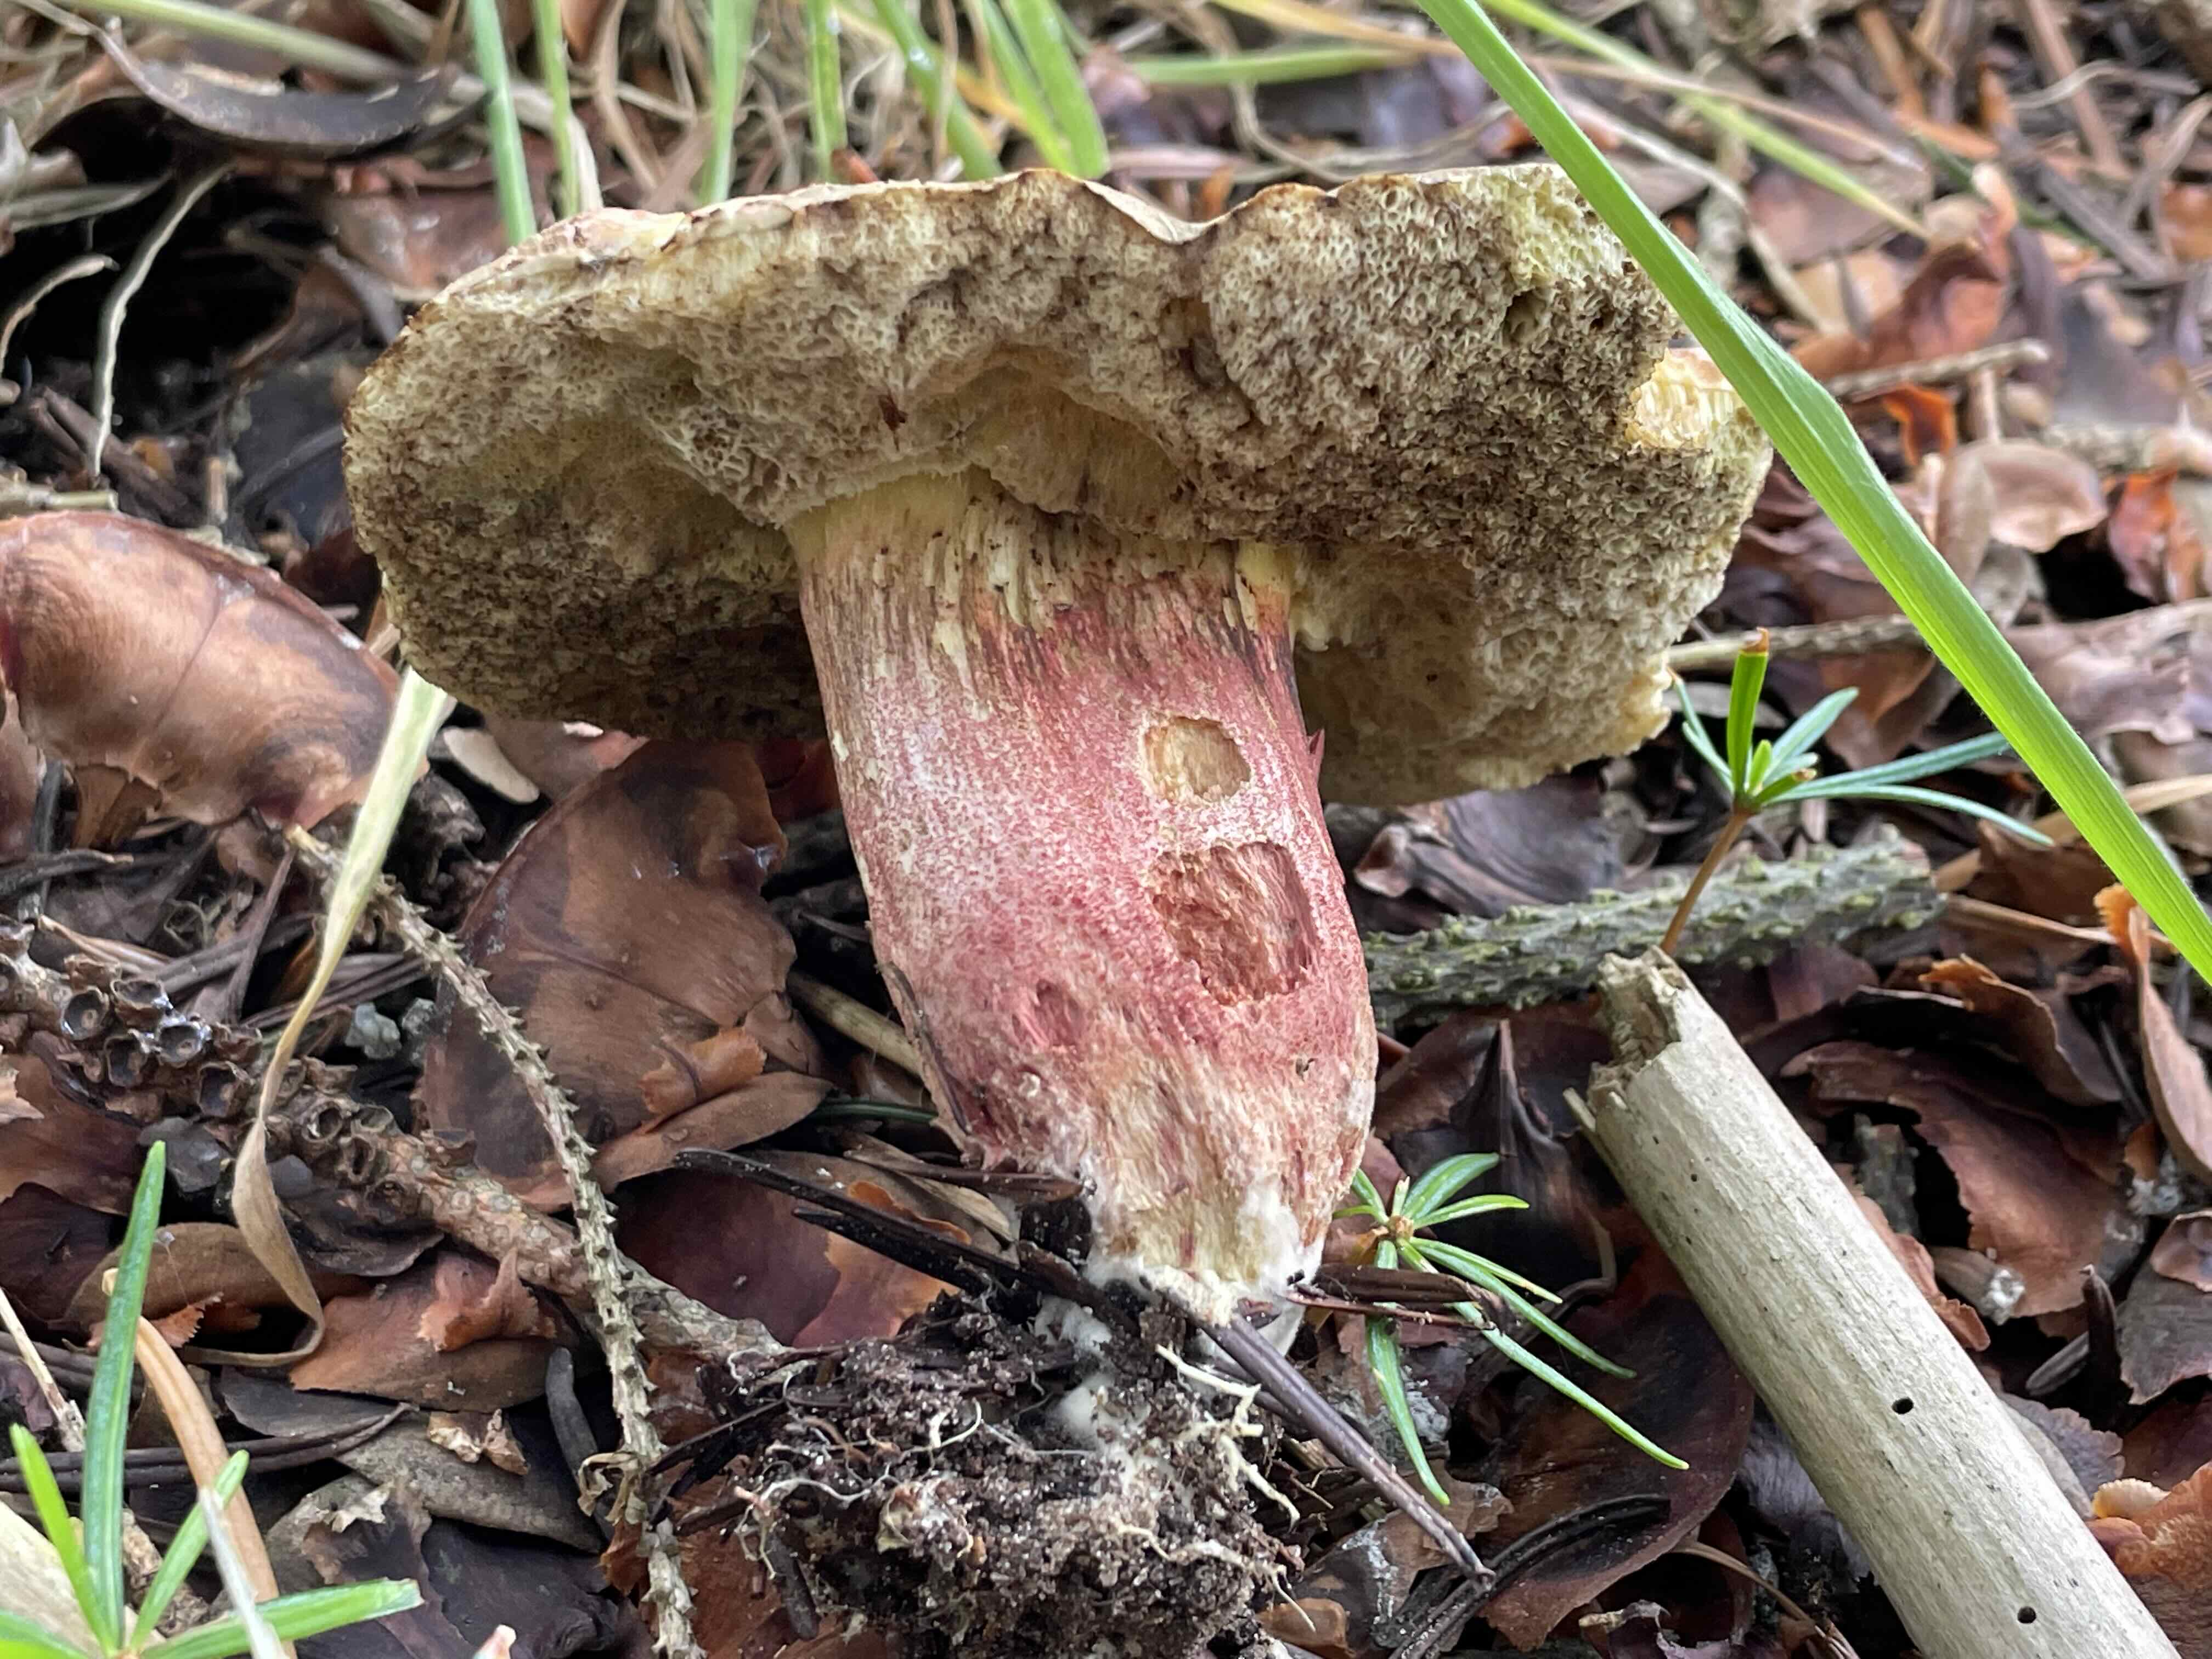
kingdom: Fungi
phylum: Basidiomycota
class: Agaricomycetes
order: Boletales
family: Boletaceae
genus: Xerocomellus
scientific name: Xerocomellus chrysenteron
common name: rødsprukken rørhat
